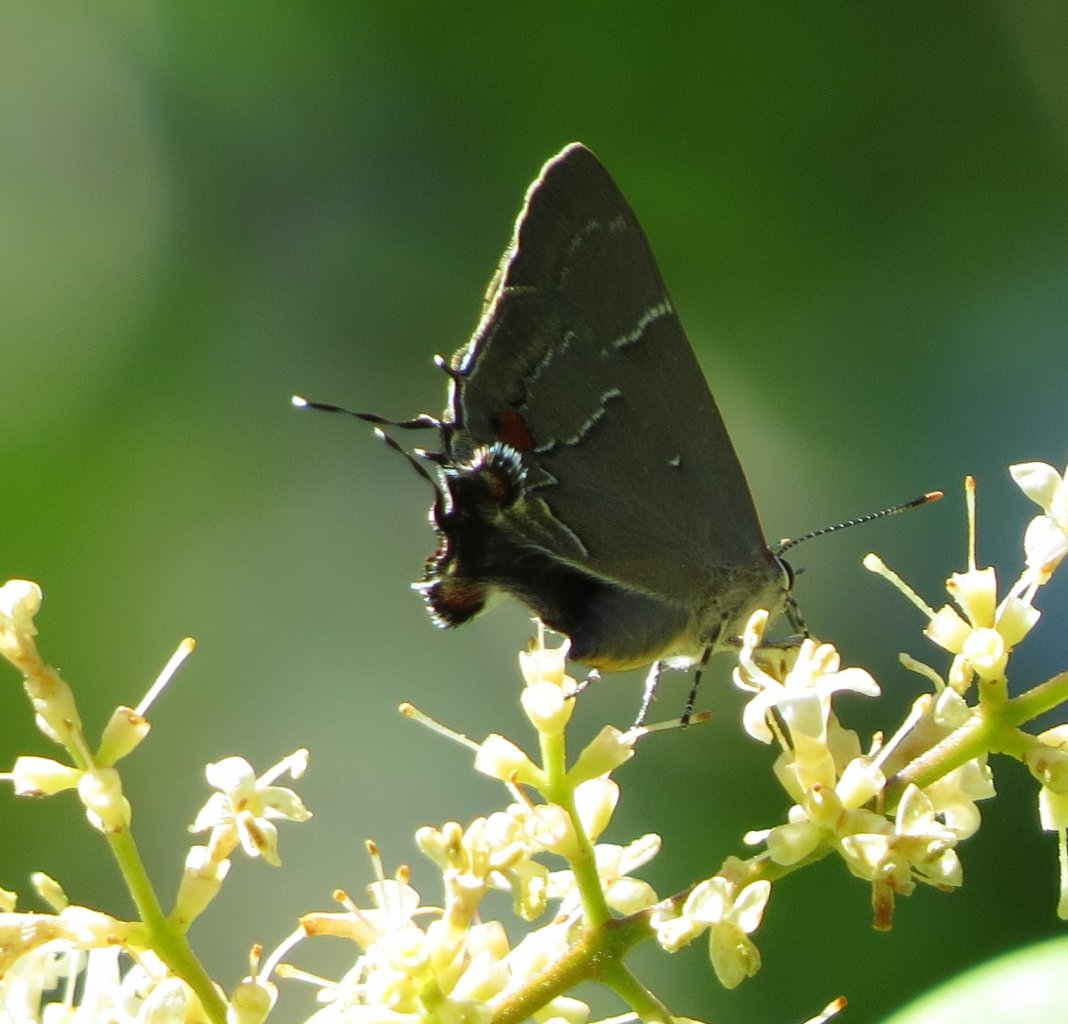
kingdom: Animalia
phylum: Arthropoda
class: Insecta
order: Lepidoptera
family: Lycaenidae
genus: Parrhasius
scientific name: Parrhasius m-album
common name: White-m Hairstreak
